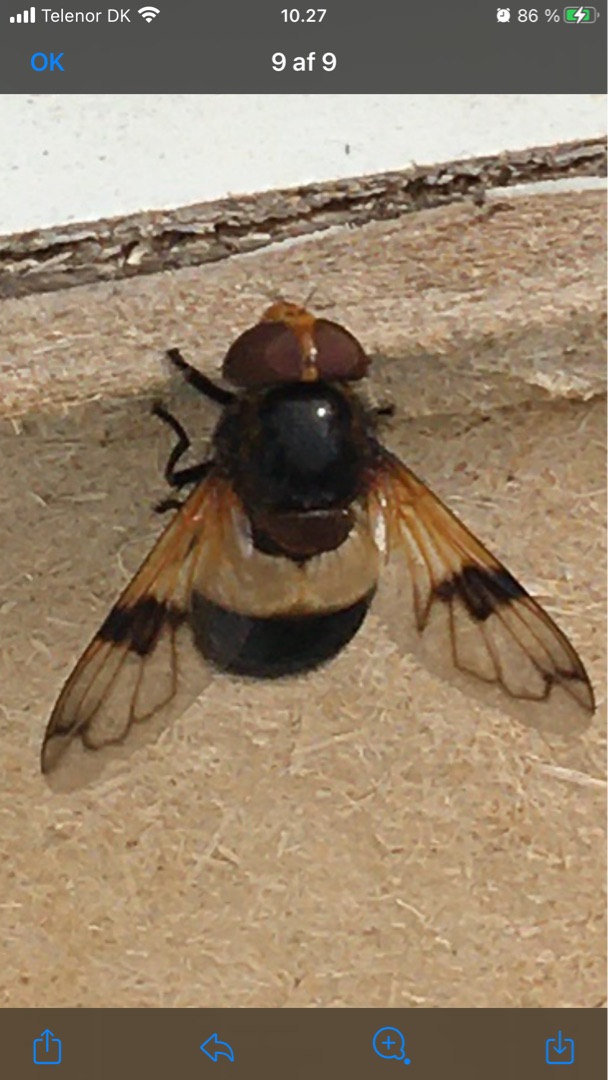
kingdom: Animalia
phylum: Arthropoda
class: Insecta
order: Diptera
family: Syrphidae
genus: Volucella
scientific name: Volucella pellucens
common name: Hvidbåndet humlesvirreflue
